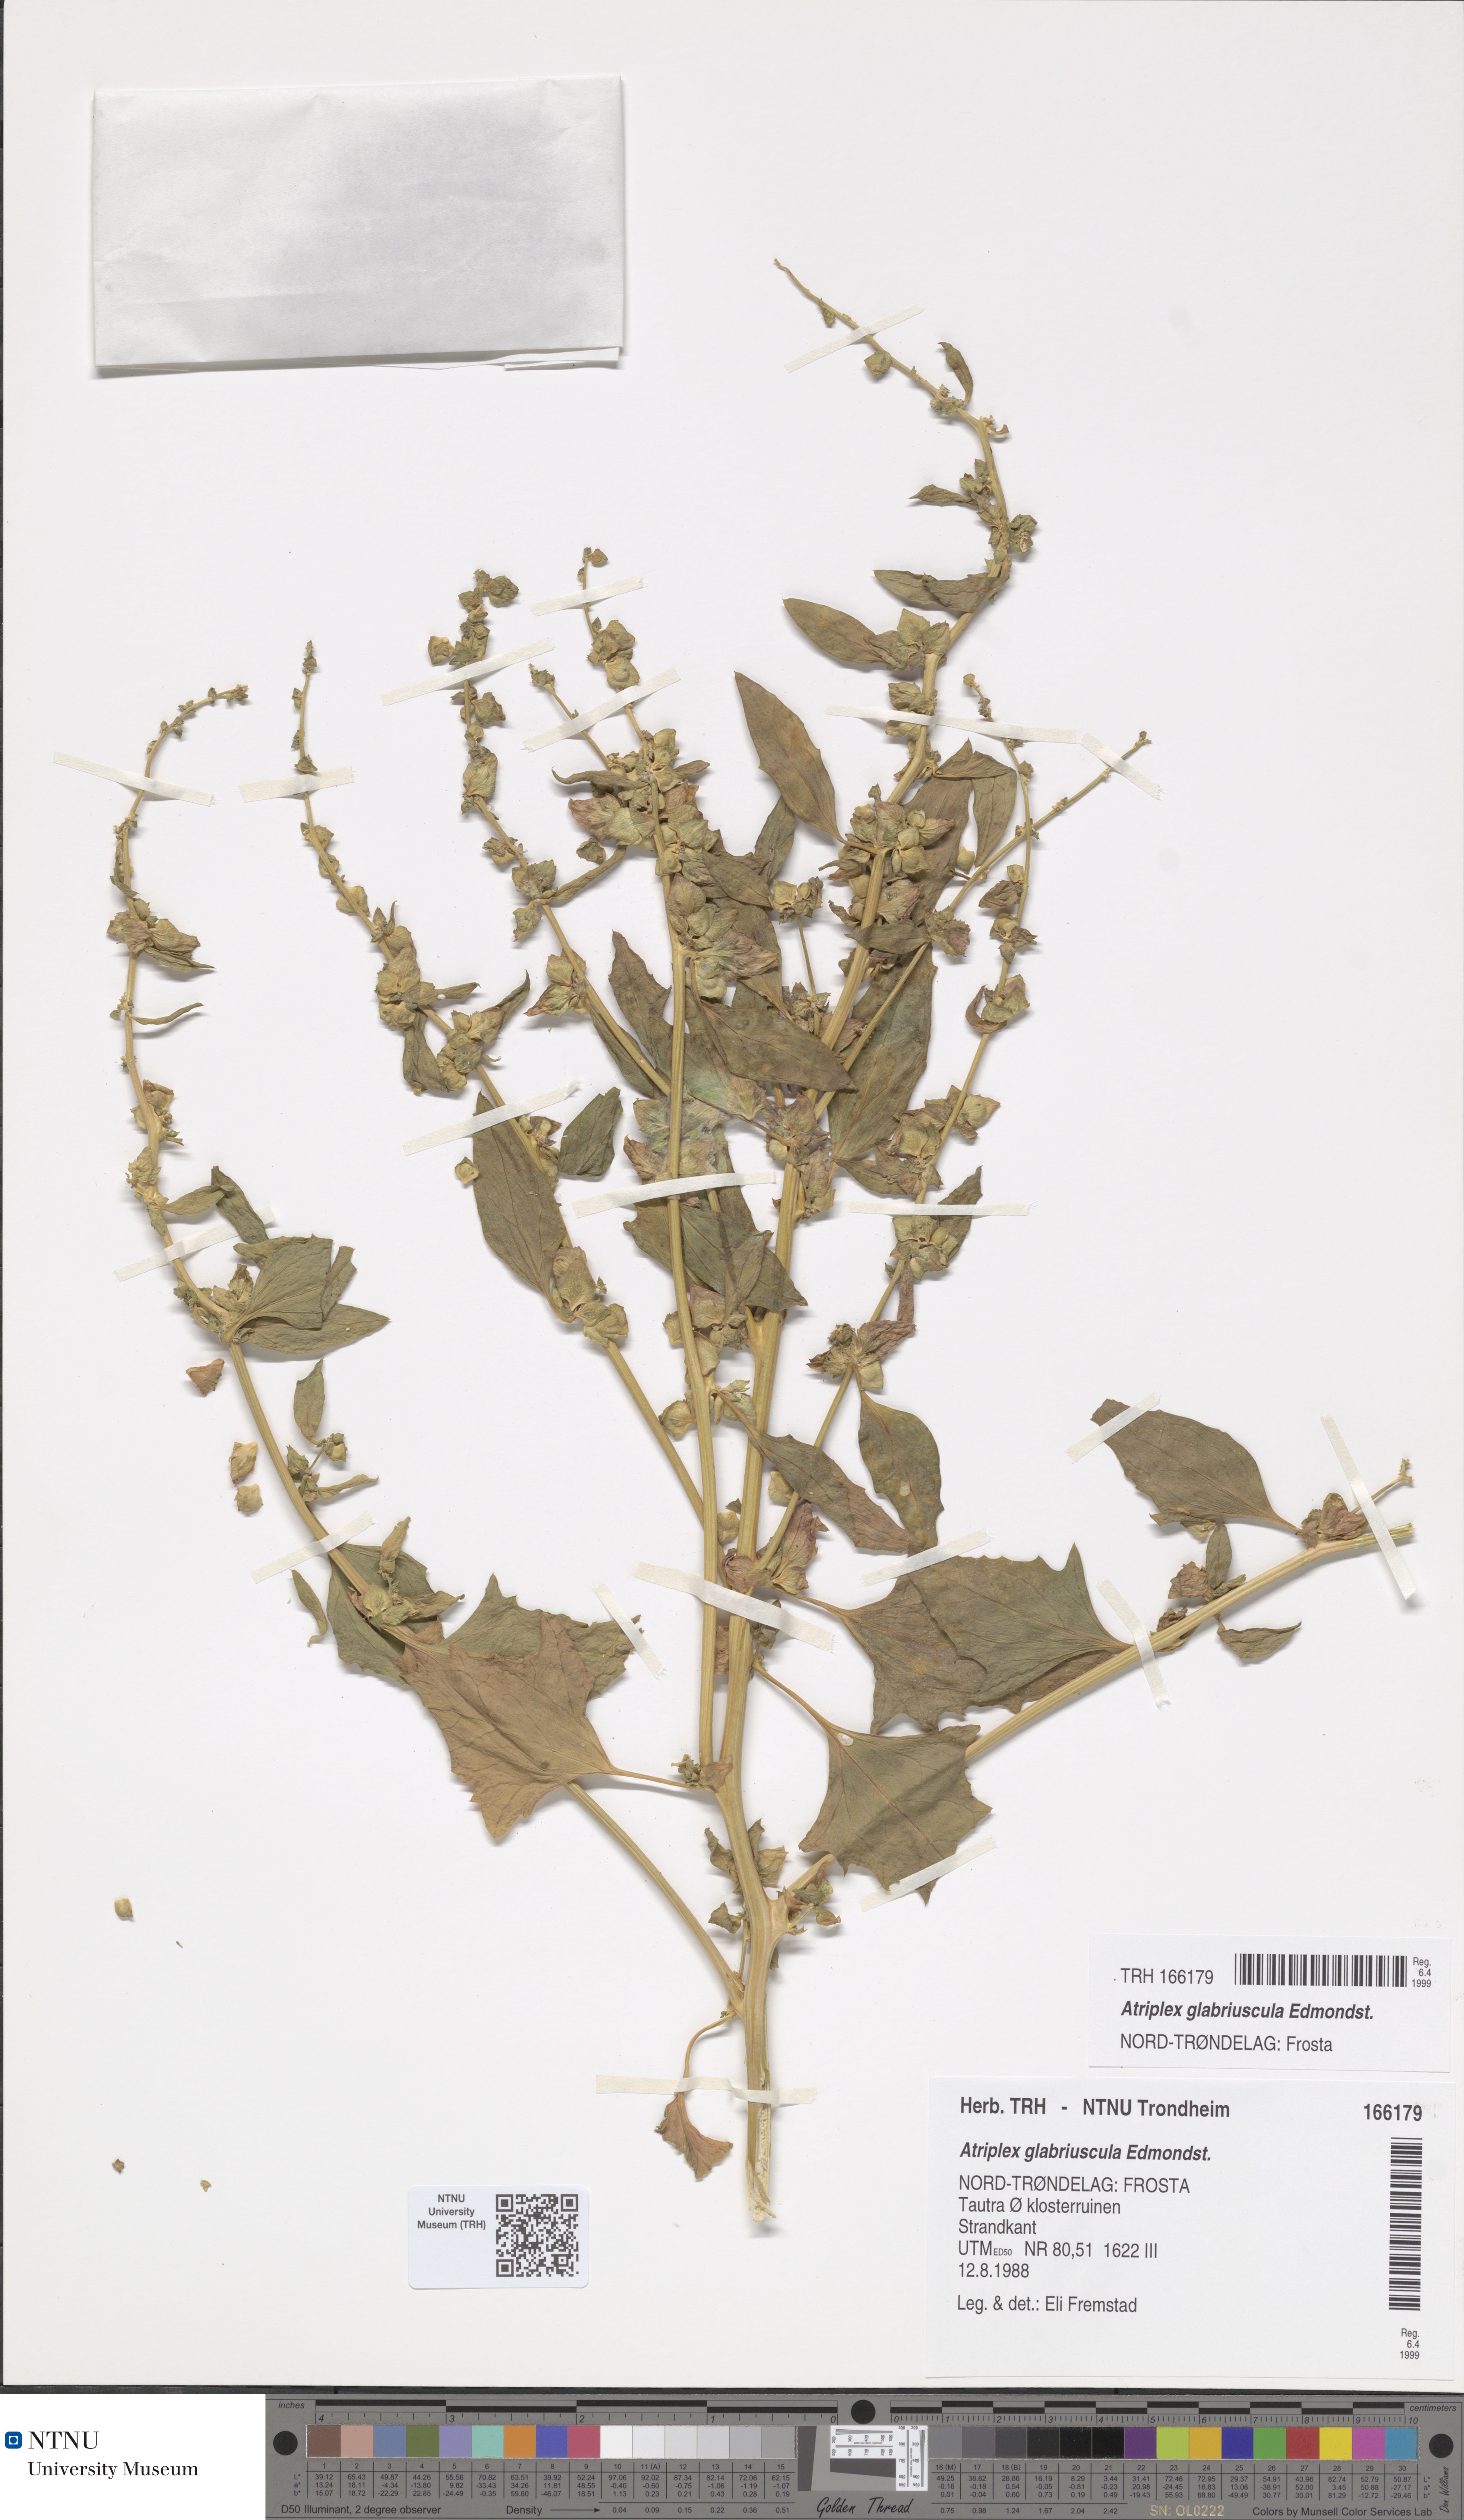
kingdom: Plantae
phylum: Tracheophyta
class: Magnoliopsida
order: Caryophyllales
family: Amaranthaceae
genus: Atriplex
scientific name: Atriplex glabriuscula
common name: Babington's orache
